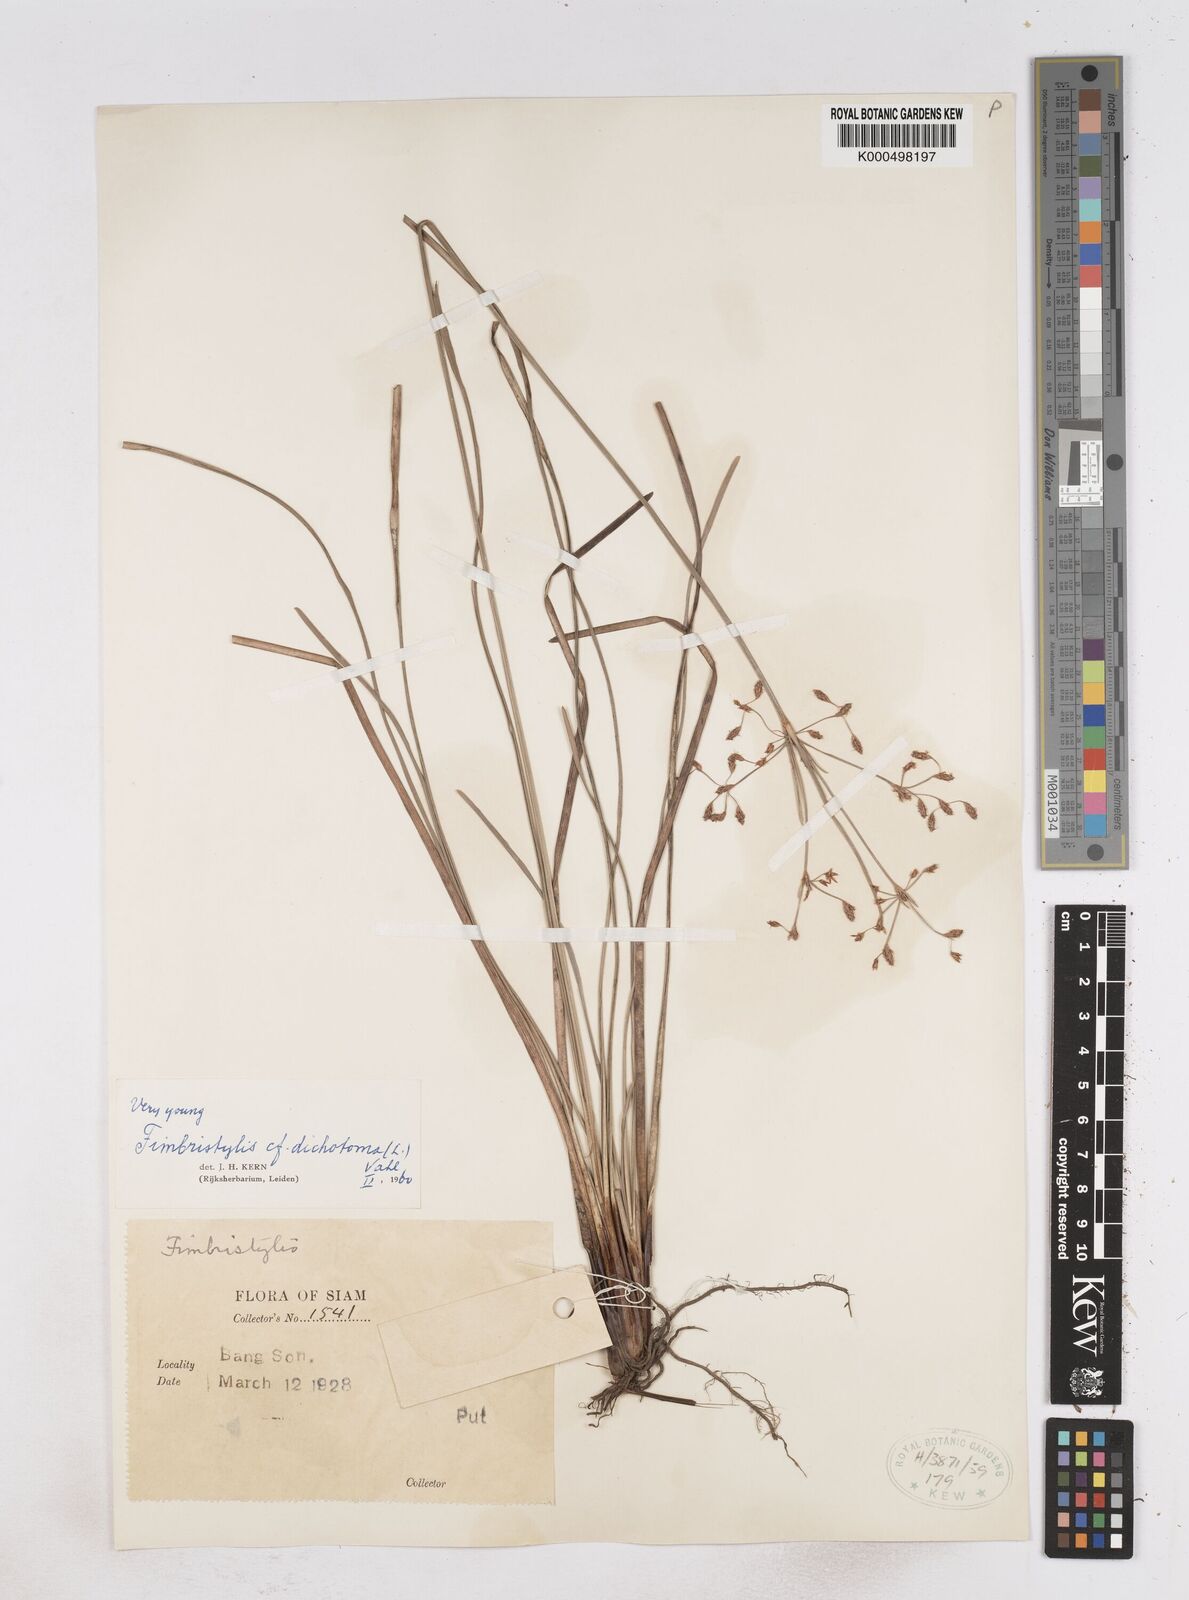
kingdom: Plantae
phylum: Tracheophyta
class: Liliopsida
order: Poales
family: Cyperaceae
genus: Fimbristylis
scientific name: Fimbristylis dichotoma
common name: Forked fimbry
